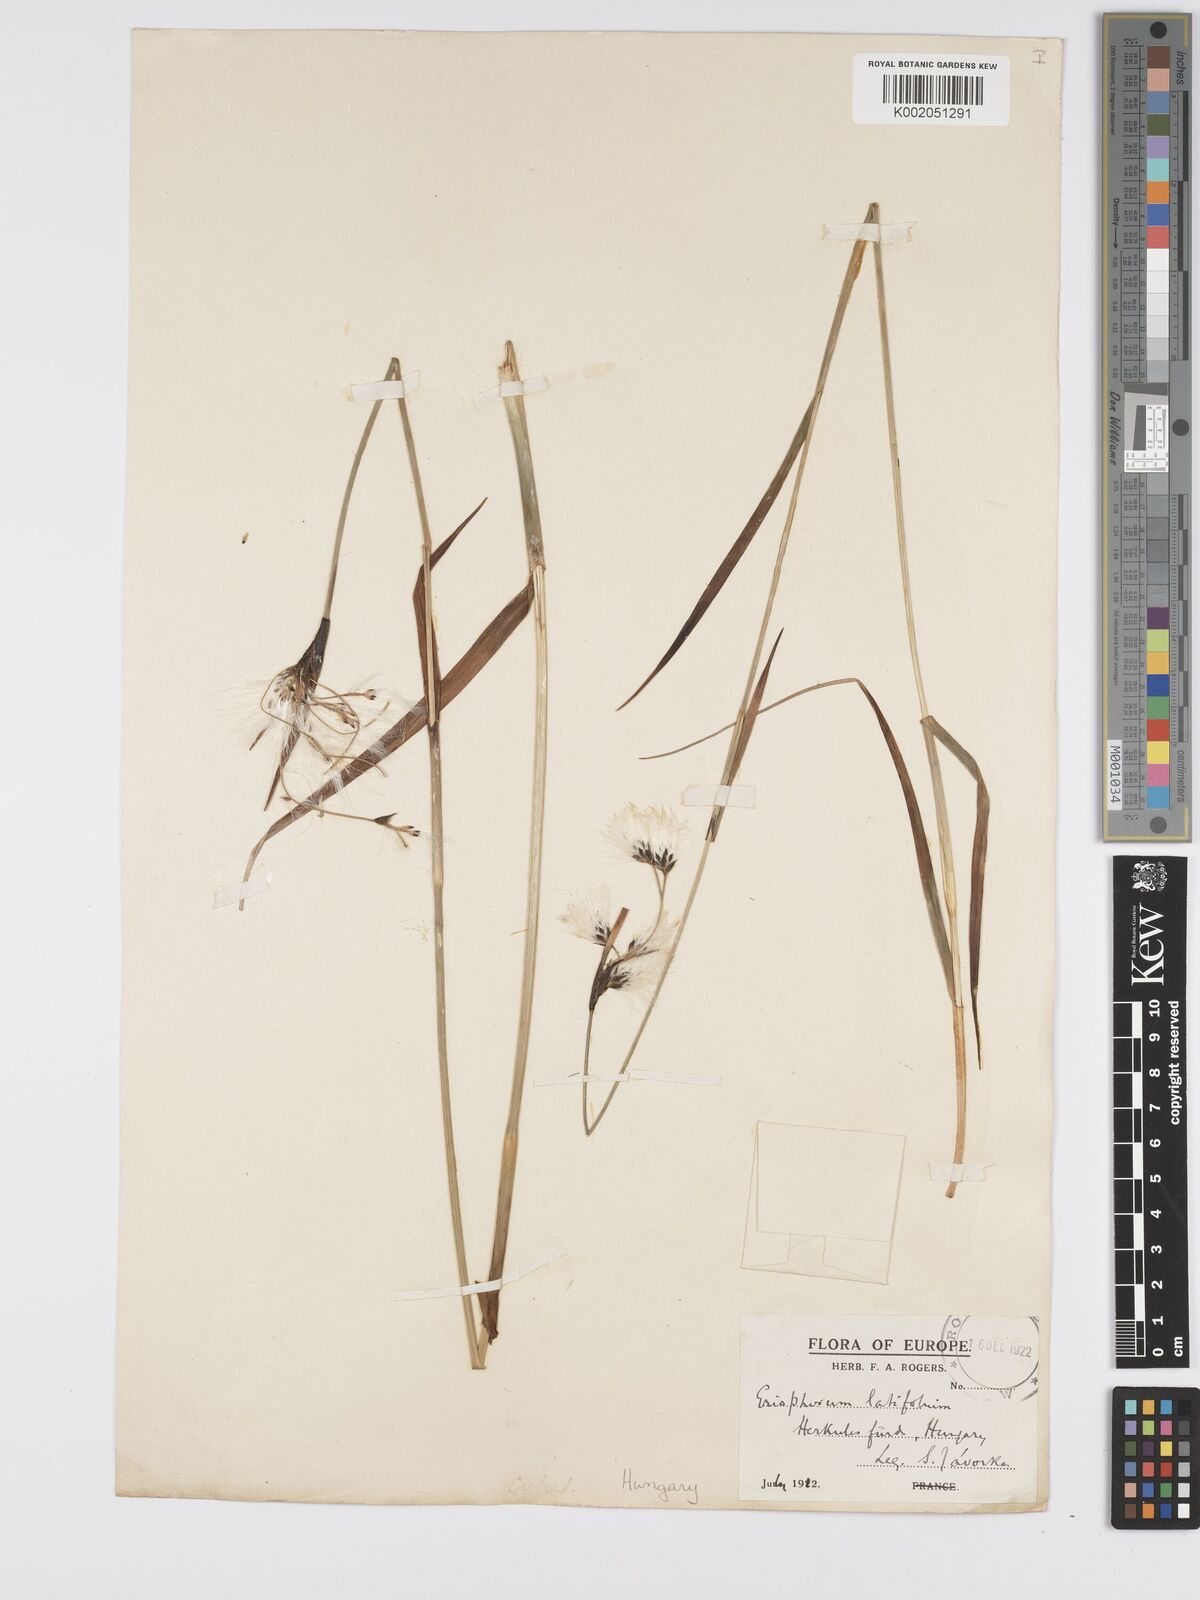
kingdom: Plantae
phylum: Tracheophyta
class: Liliopsida
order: Poales
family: Cyperaceae
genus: Eriophorum
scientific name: Eriophorum latifolium
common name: Broad-leaved cottongrass
